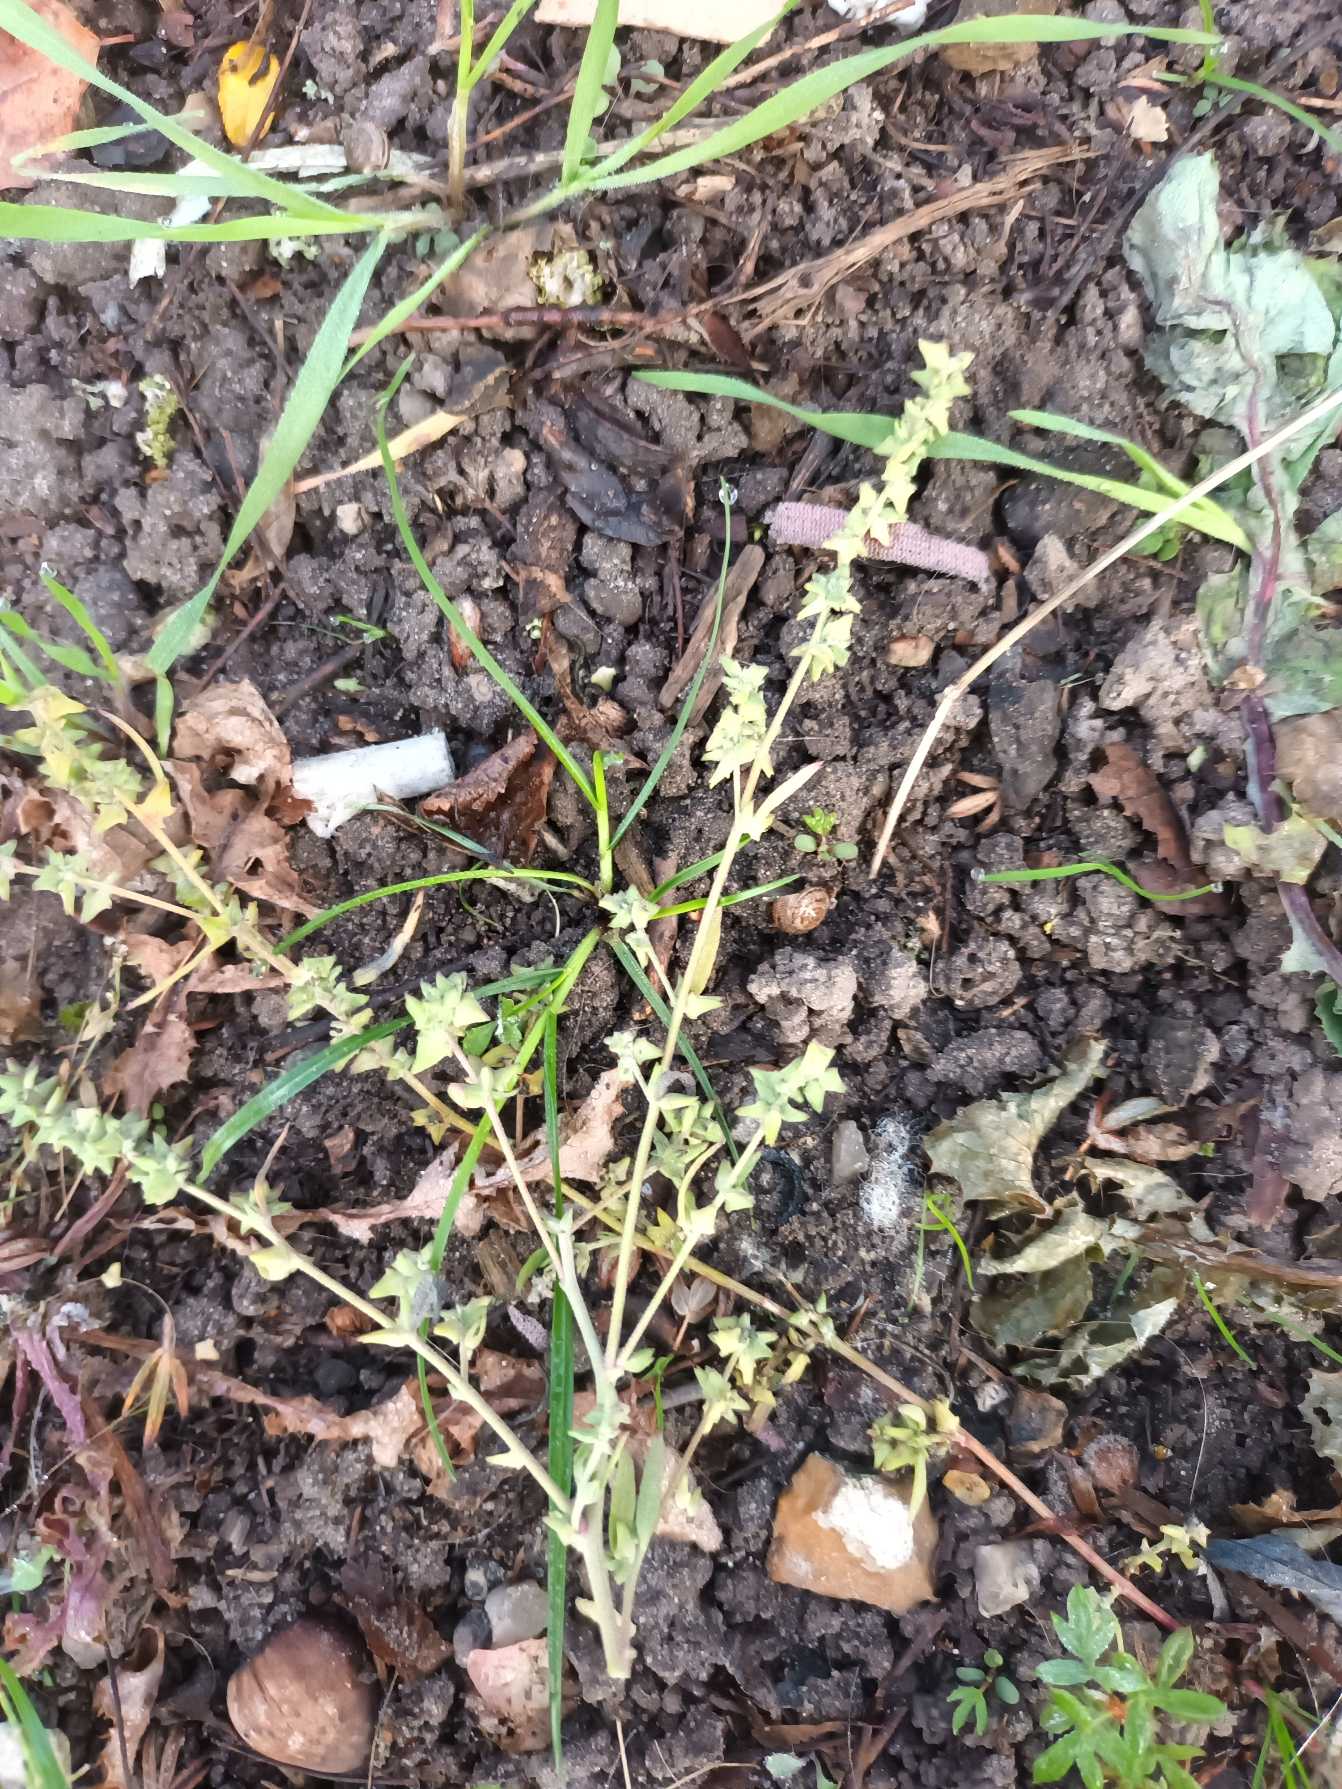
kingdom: Plantae
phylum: Tracheophyta
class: Magnoliopsida
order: Caryophyllales
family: Amaranthaceae
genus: Atriplex
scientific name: Atriplex patula
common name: Svine-mælde
